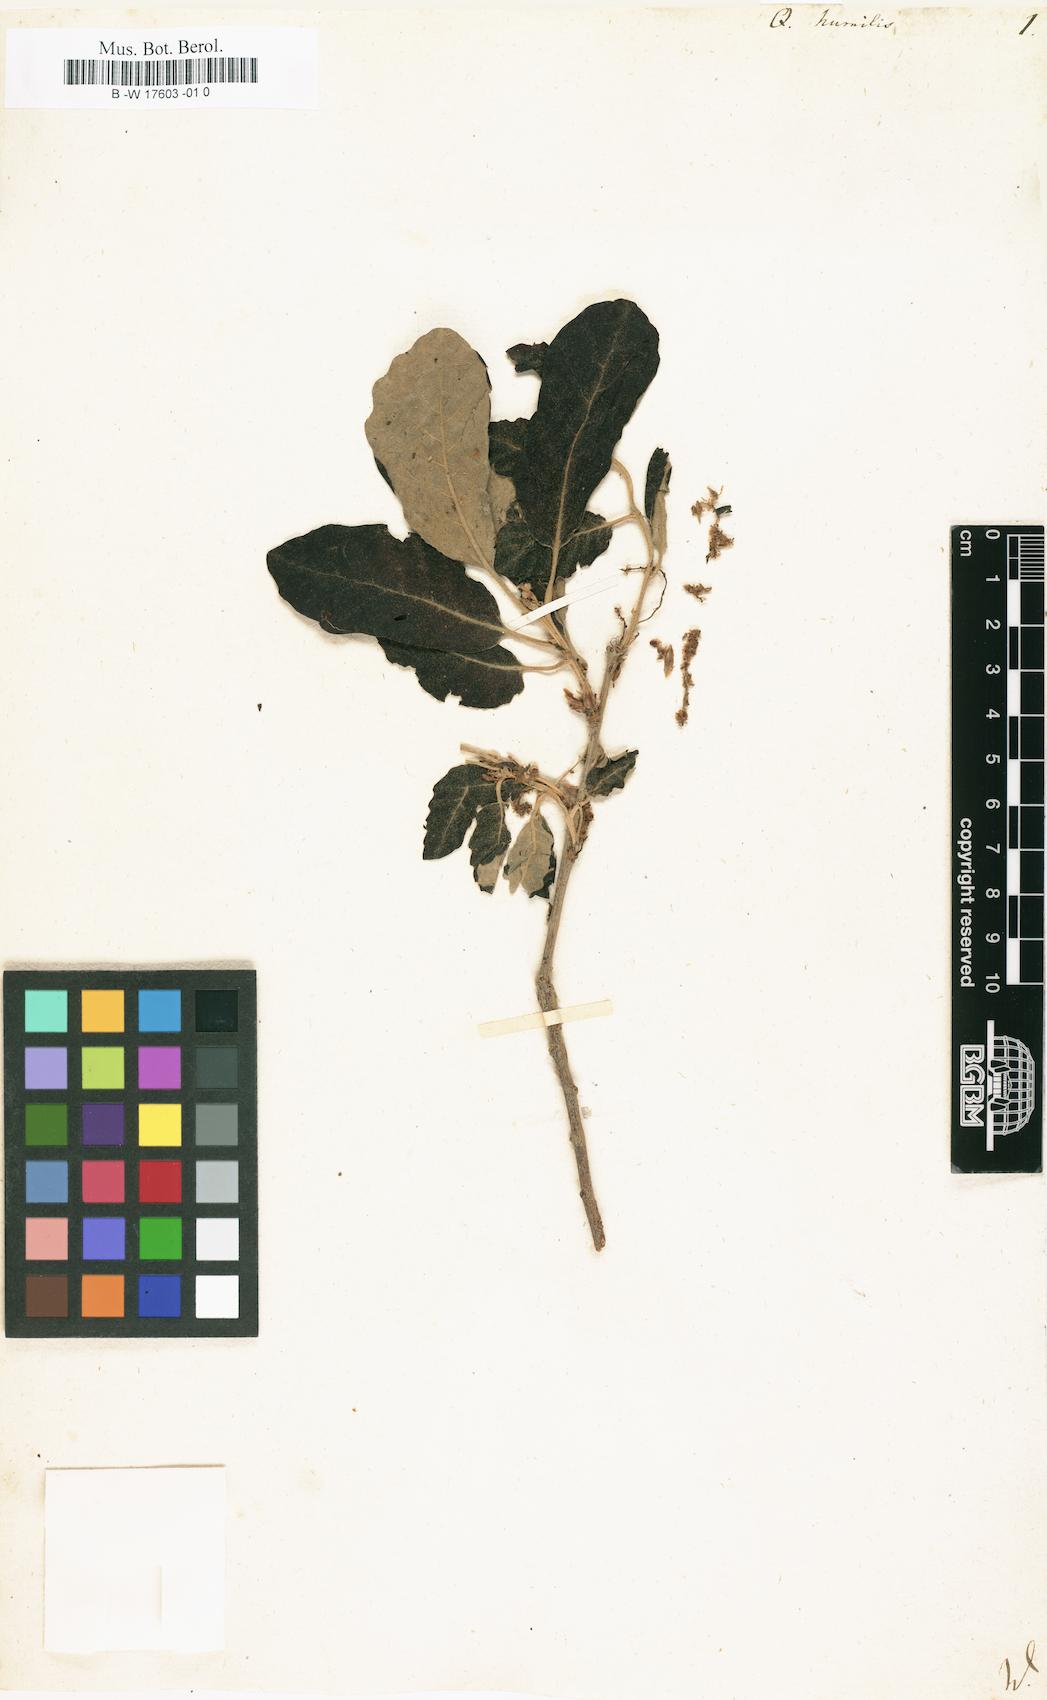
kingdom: Plantae
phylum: Tracheophyta
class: Magnoliopsida
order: Fagales
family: Fagaceae
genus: Quercus
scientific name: Quercus
